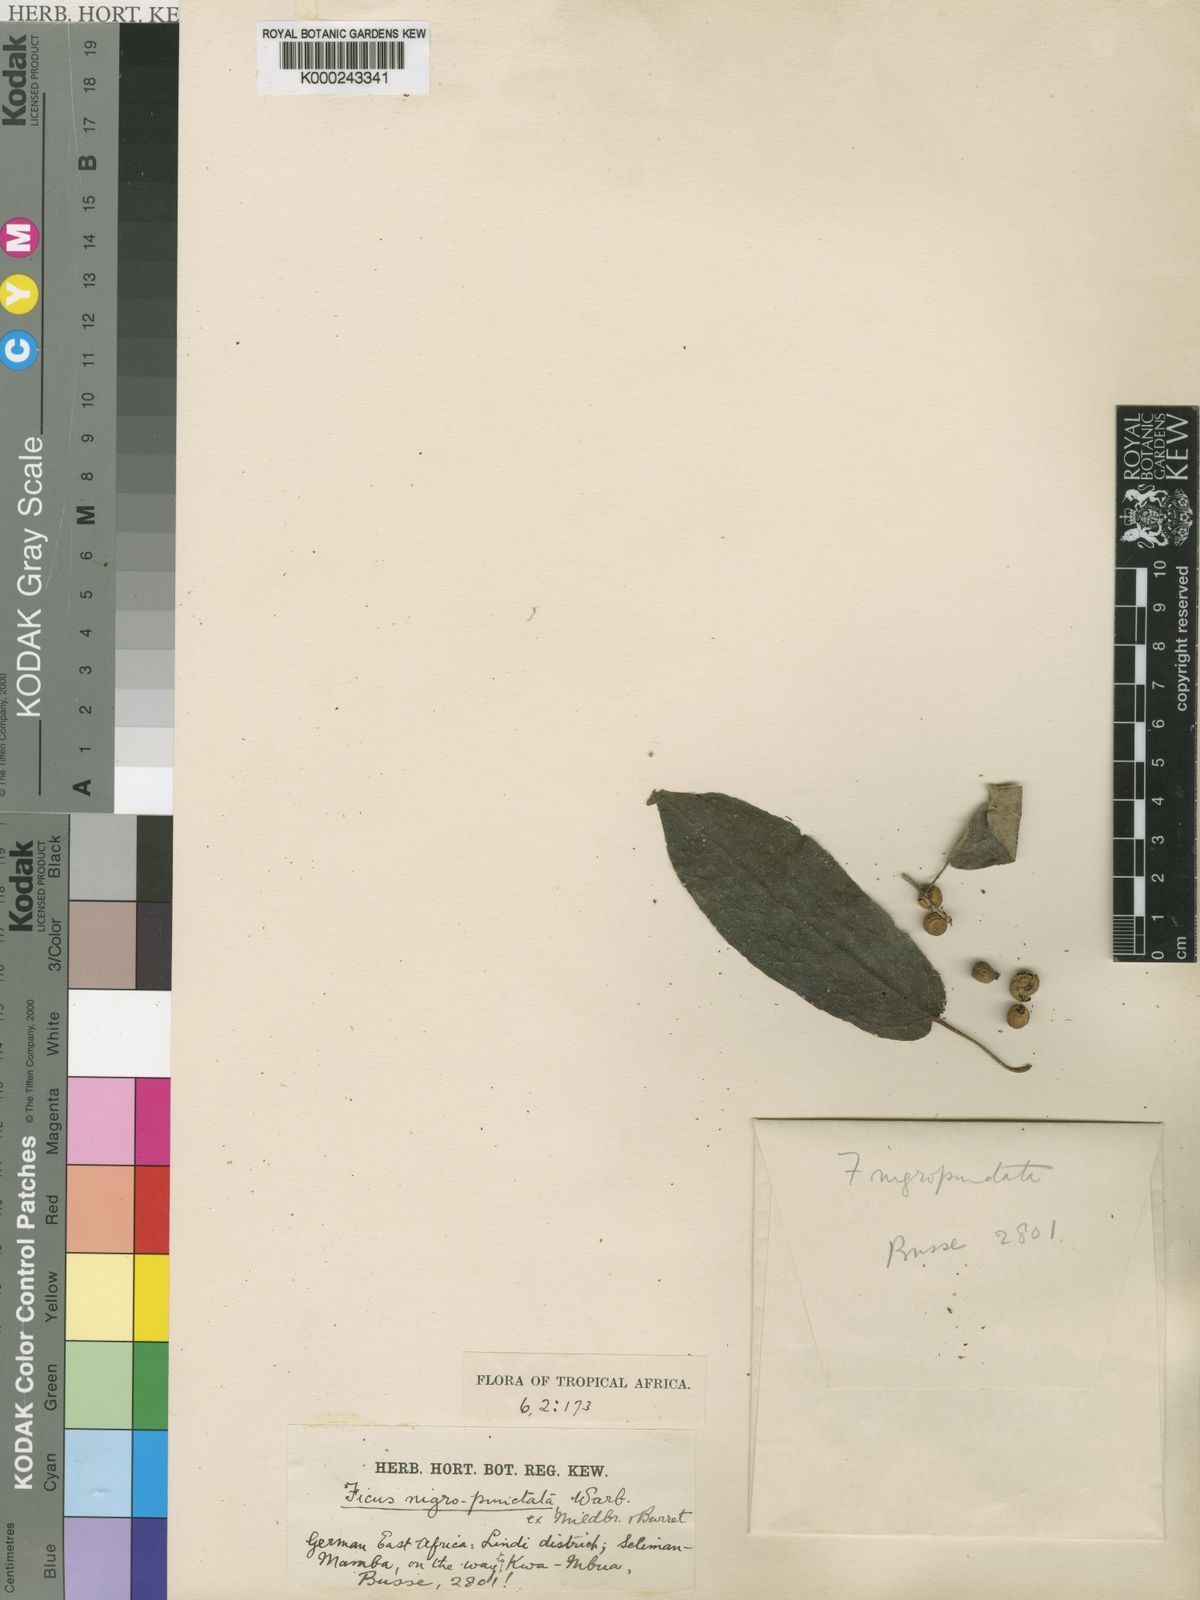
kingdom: Plantae
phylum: Tracheophyta
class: Magnoliopsida
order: Rosales
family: Moraceae
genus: Ficus
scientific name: Ficus nigropunctata
